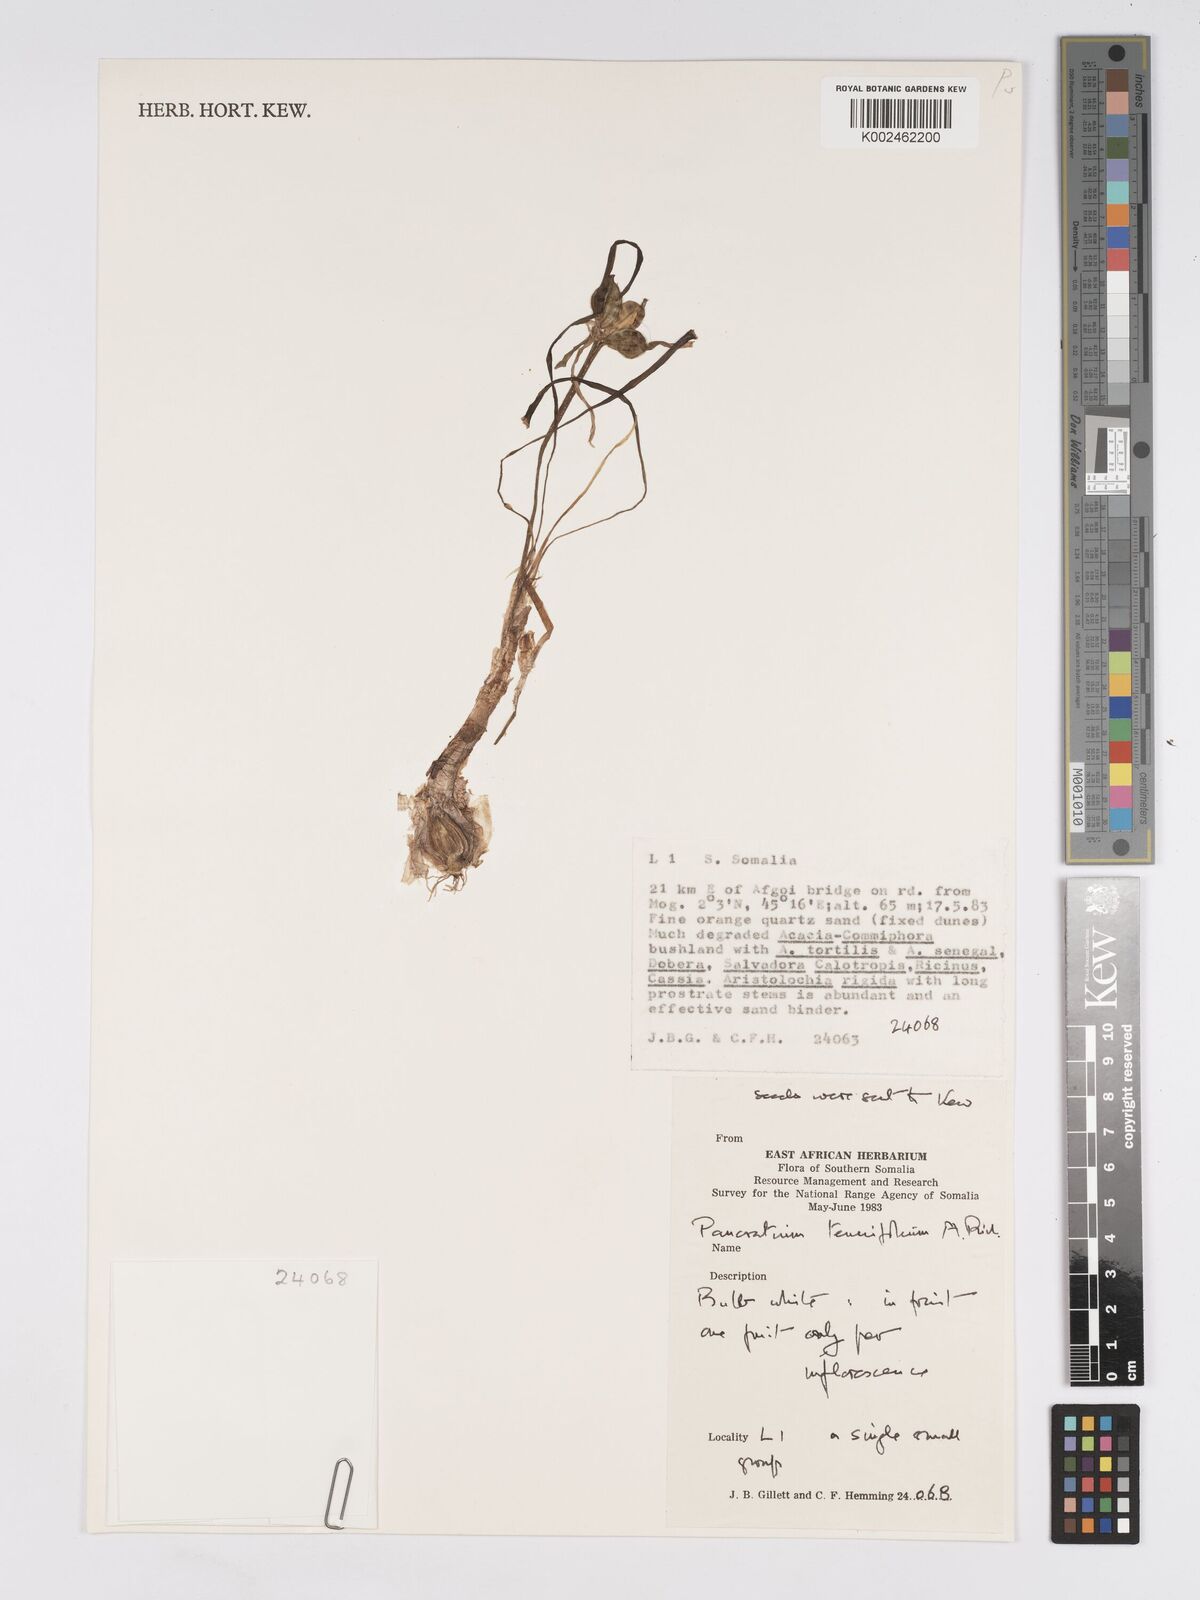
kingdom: Plantae
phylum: Tracheophyta
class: Liliopsida
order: Asparagales
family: Amaryllidaceae
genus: Pancratium
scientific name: Pancratium tenuifolium
